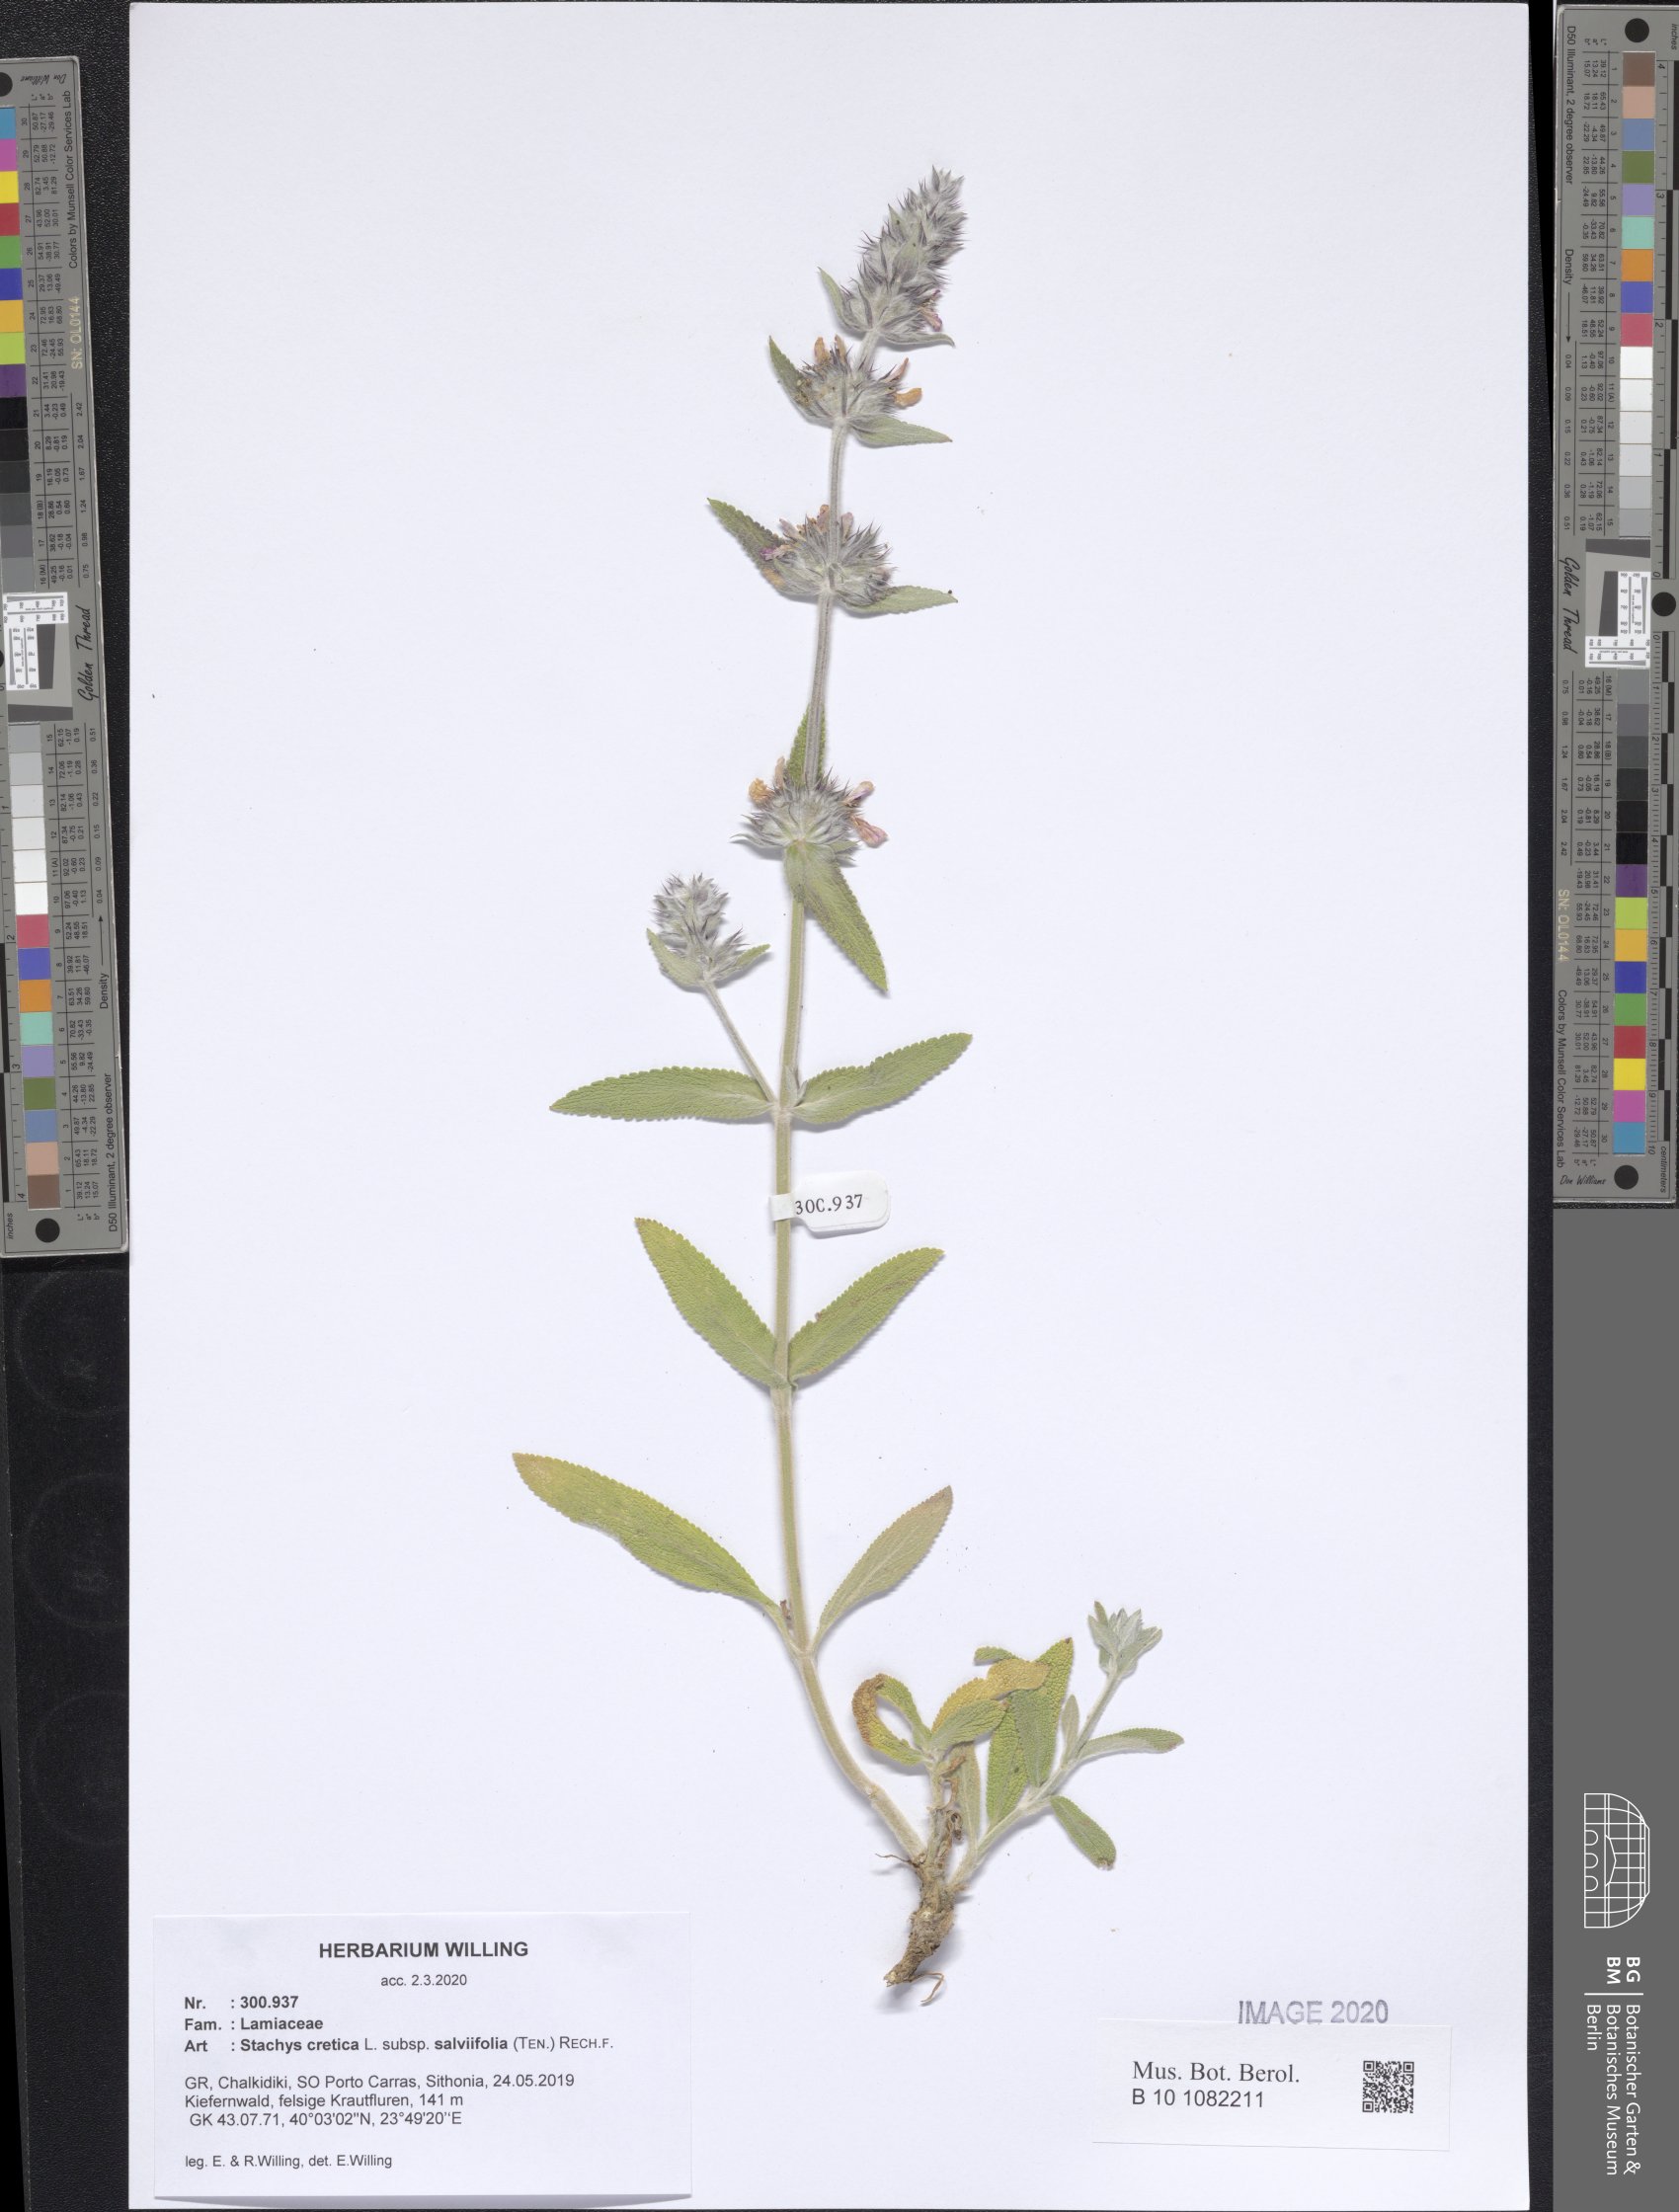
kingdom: Plantae
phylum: Tracheophyta
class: Magnoliopsida
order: Lamiales
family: Lamiaceae
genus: Stachys
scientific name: Stachys cretica
